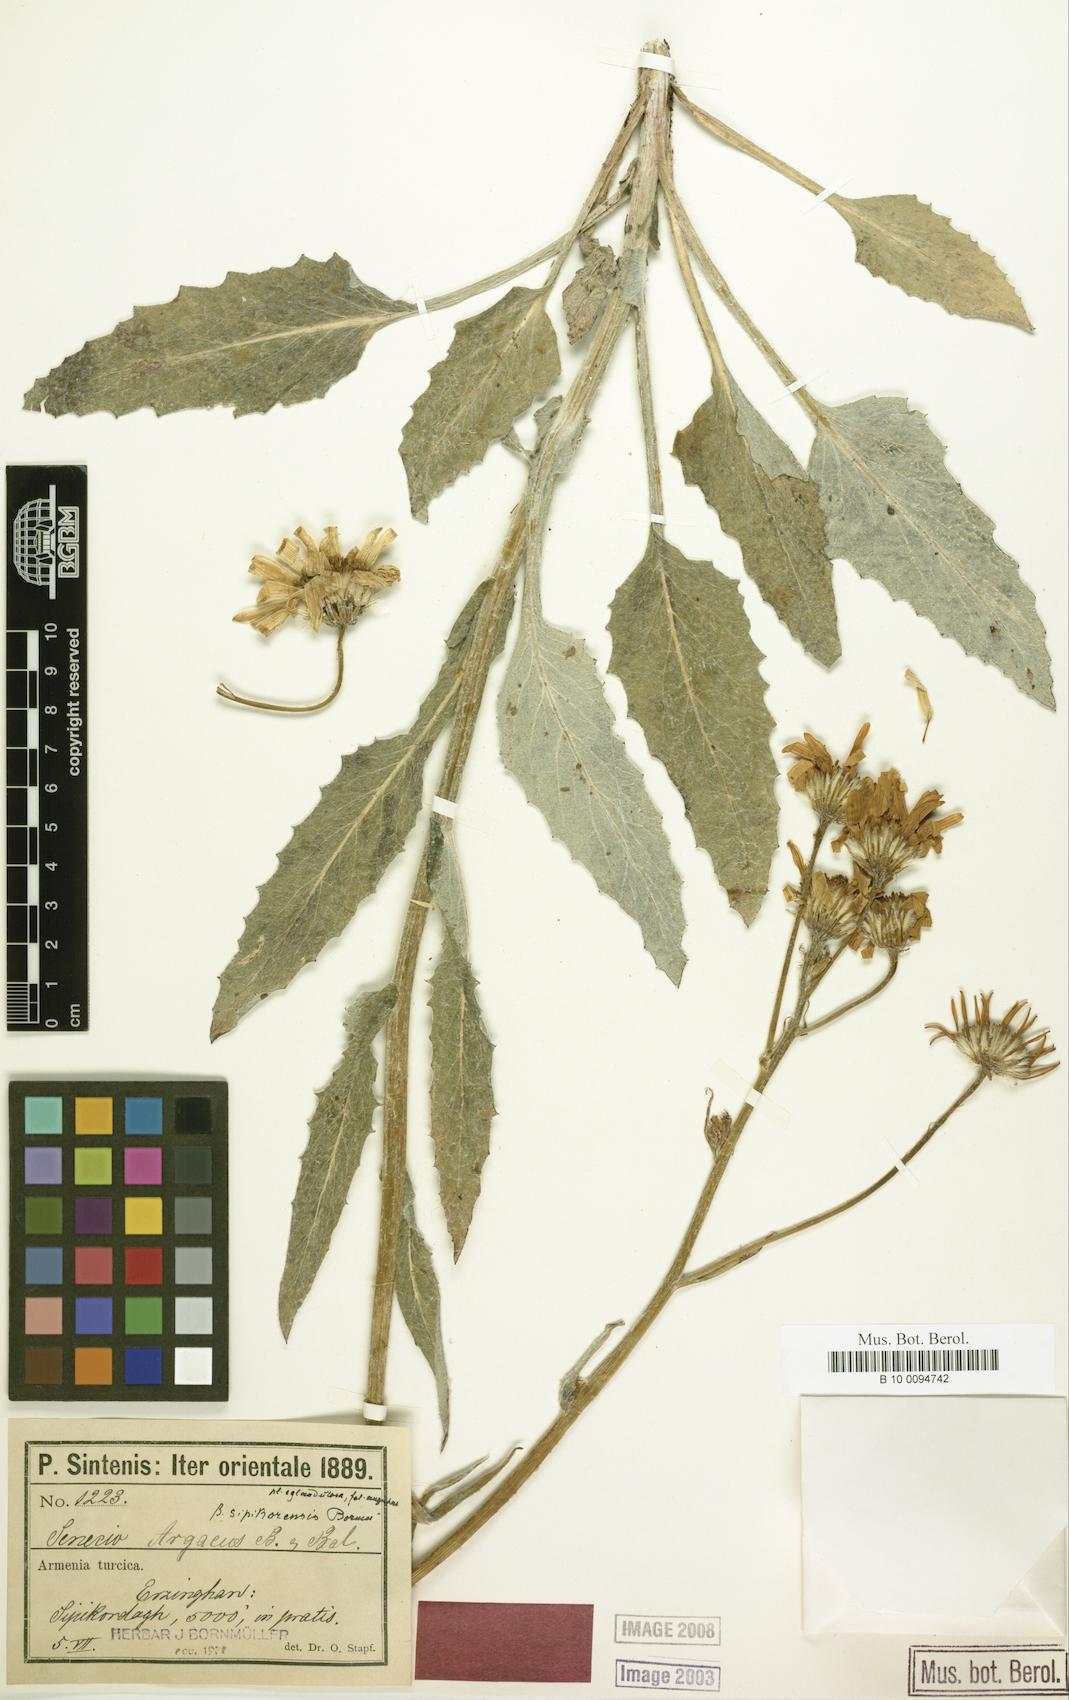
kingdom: Plantae
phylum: Tracheophyta
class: Magnoliopsida
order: Asterales
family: Asteraceae
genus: Turanecio
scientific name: Turanecio hypochionaeus
